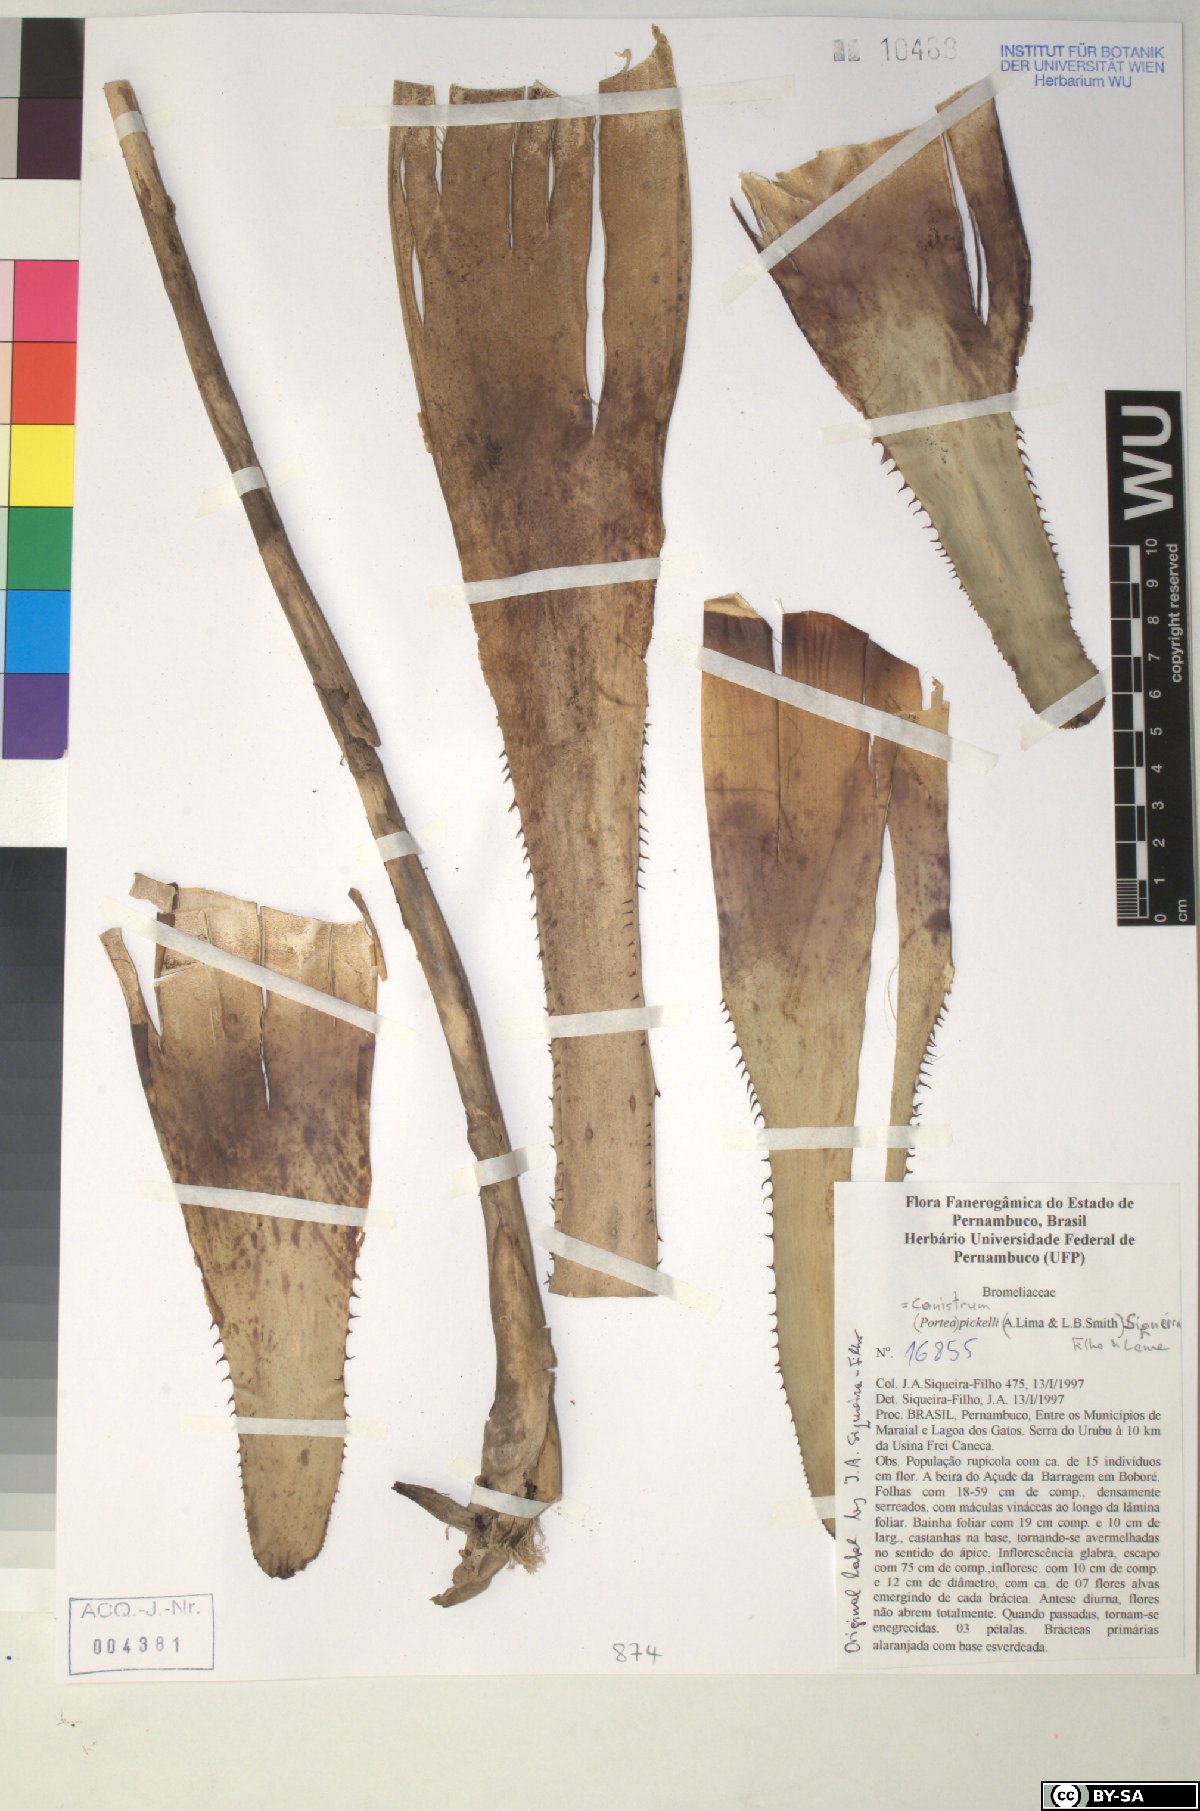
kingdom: Plantae
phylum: Tracheophyta
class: Liliopsida
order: Poales
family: Bromeliaceae
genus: Canistrum
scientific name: Canistrum pickelii
